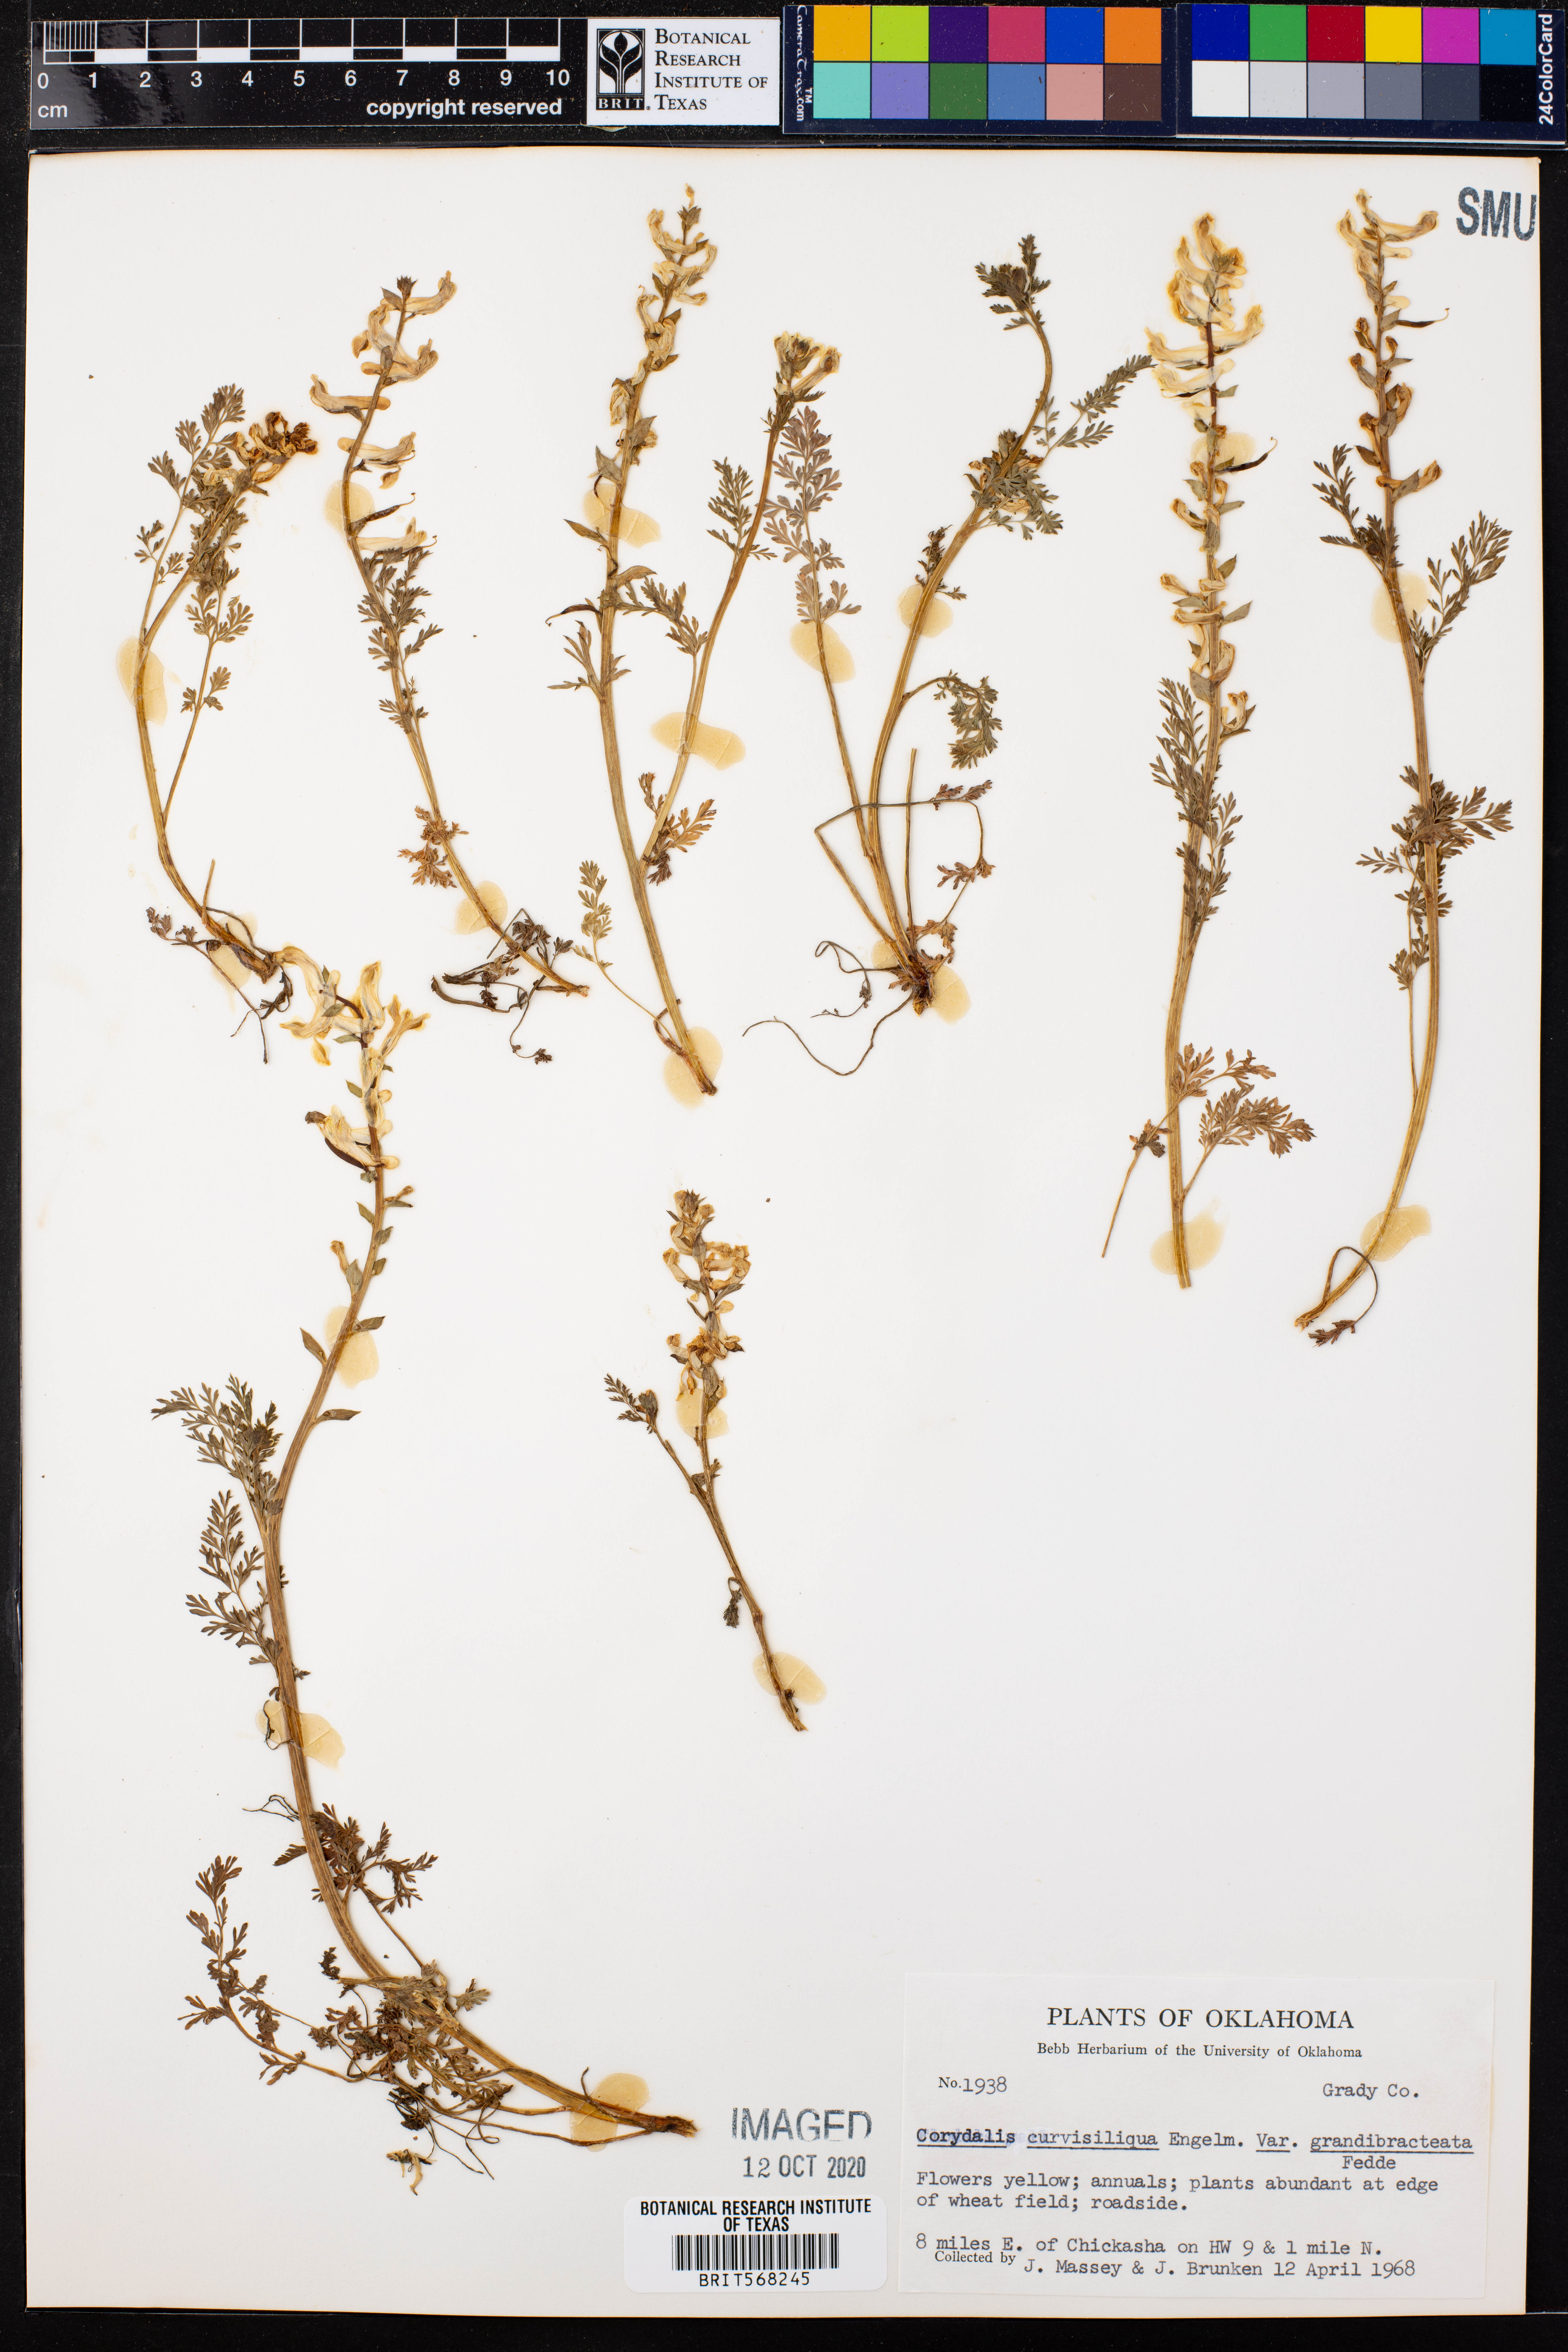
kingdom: Plantae
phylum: Tracheophyta
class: Magnoliopsida
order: Ranunculales
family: Papaveraceae
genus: Corydalis
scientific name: Corydalis curvisiliqua
